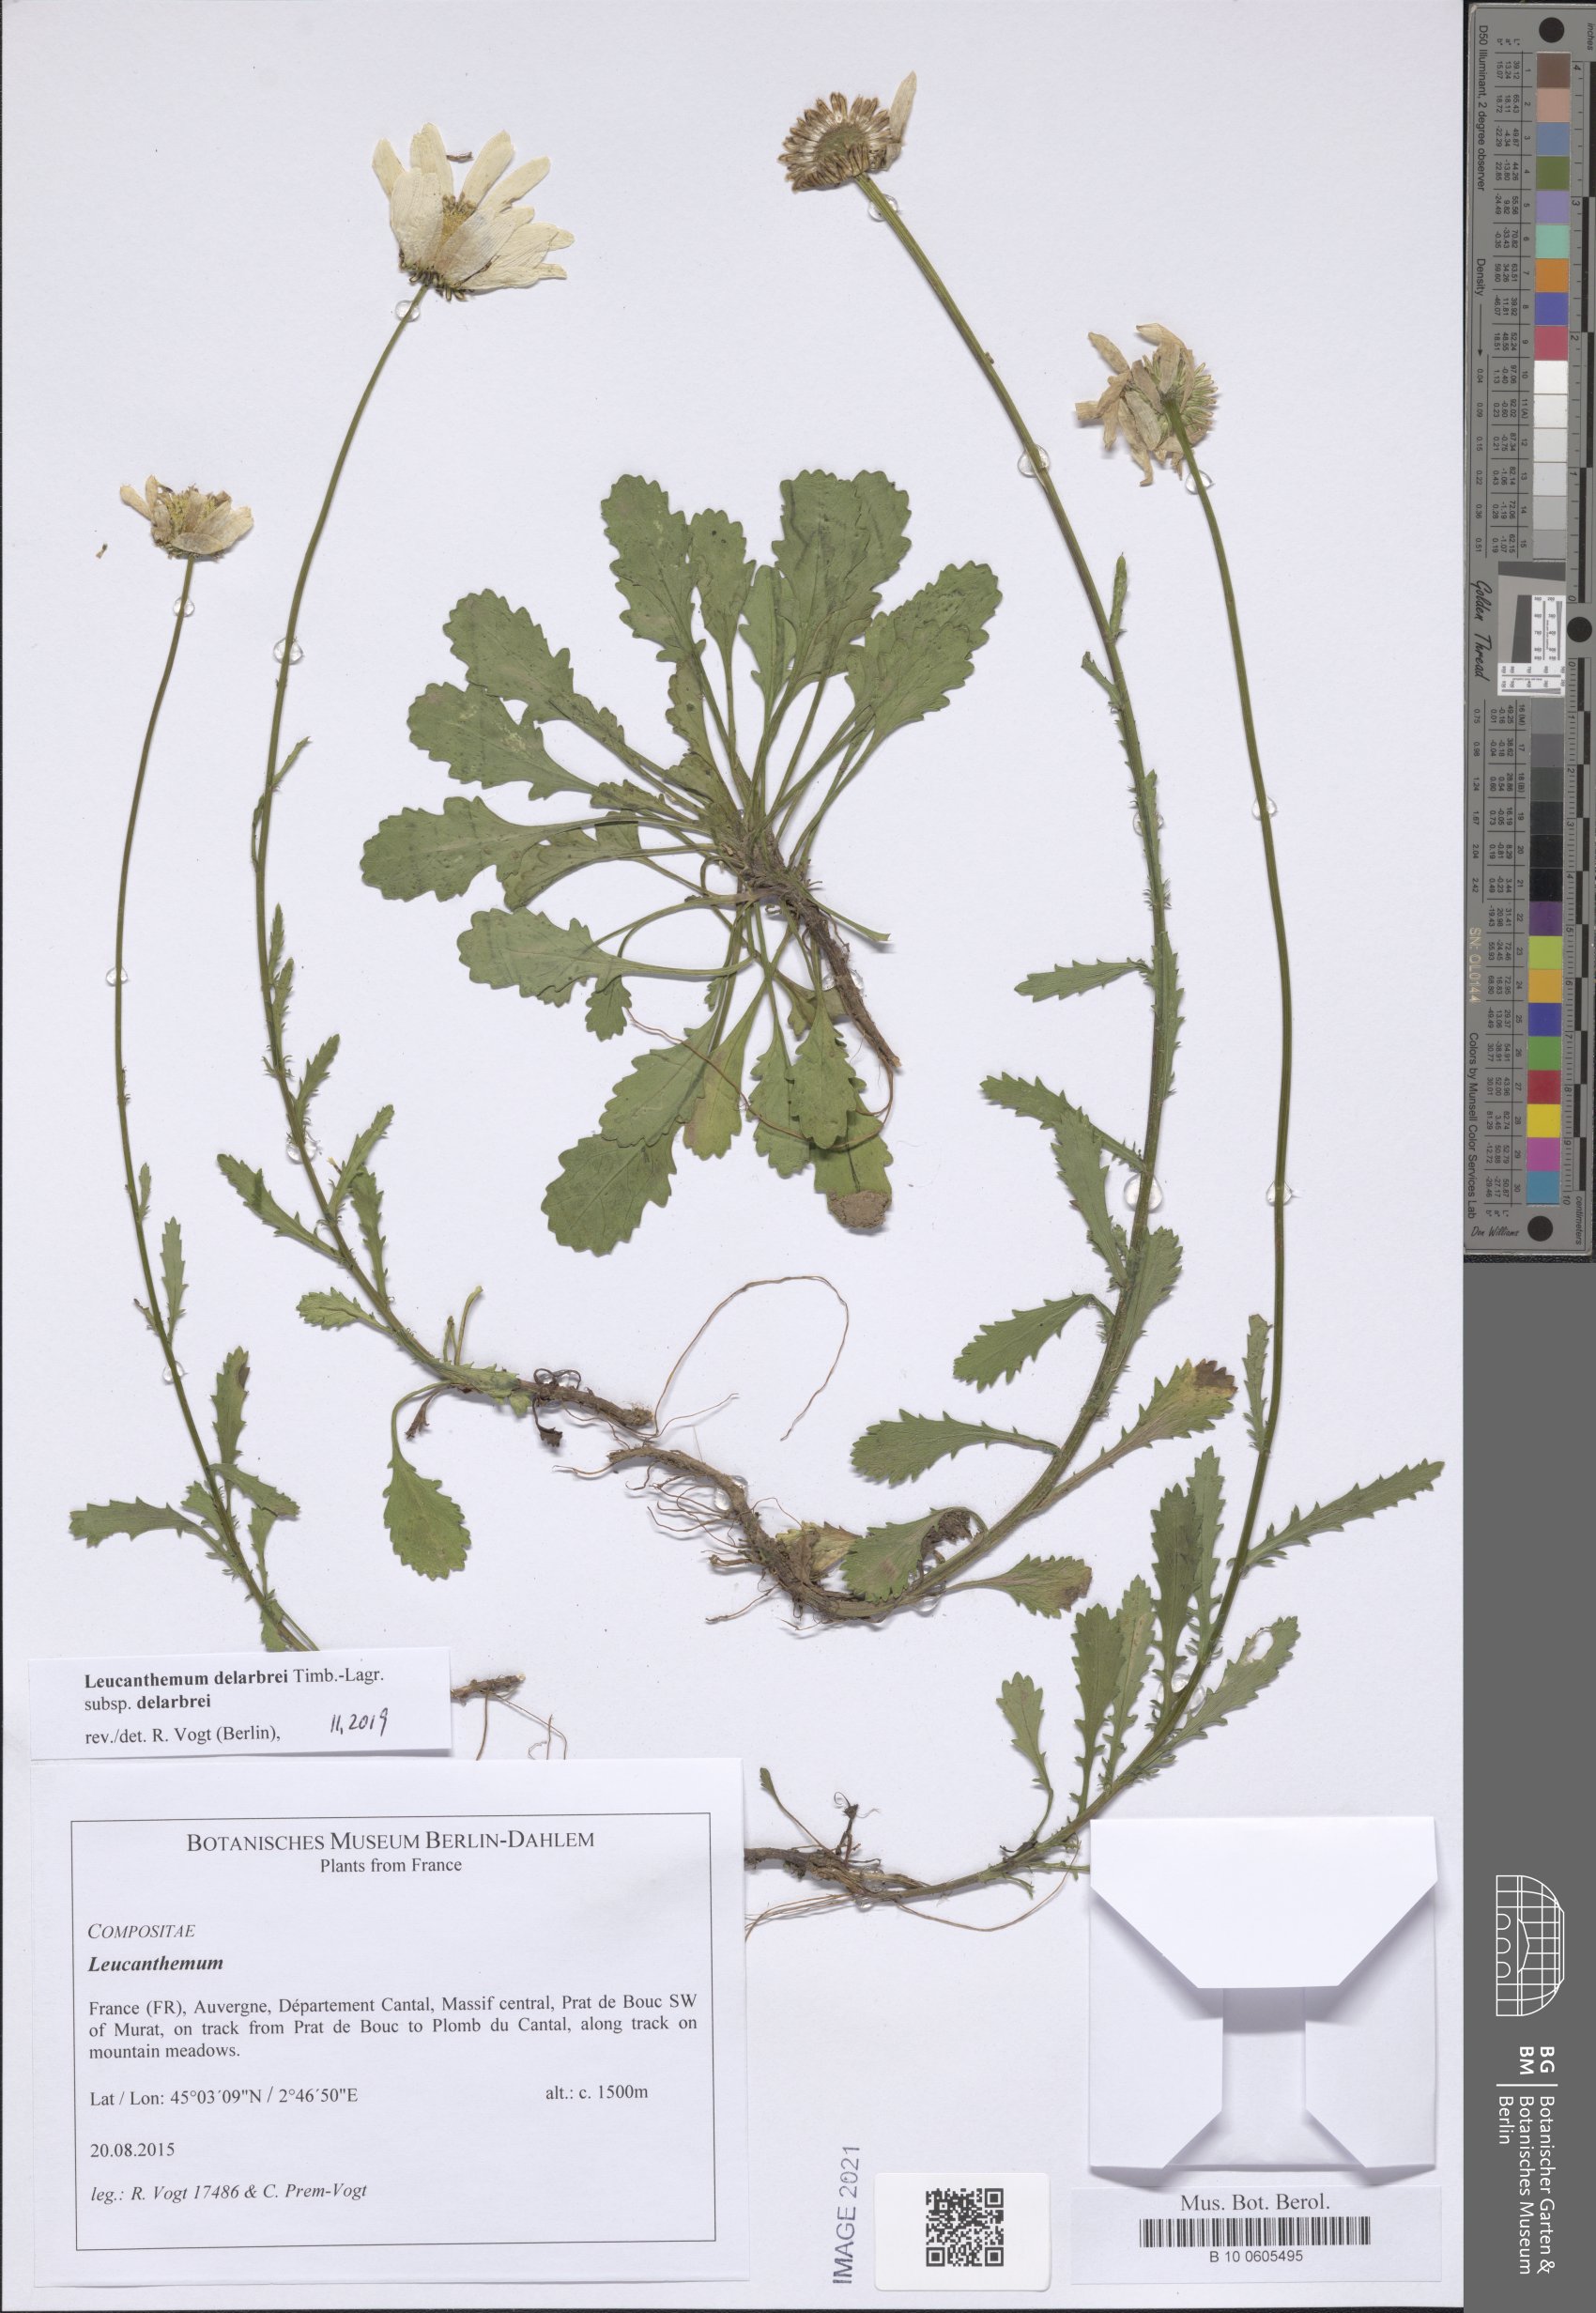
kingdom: Plantae
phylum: Tracheophyta
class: Magnoliopsida
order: Asterales
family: Asteraceae
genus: Leucanthemum
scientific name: Leucanthemum delarbrei
